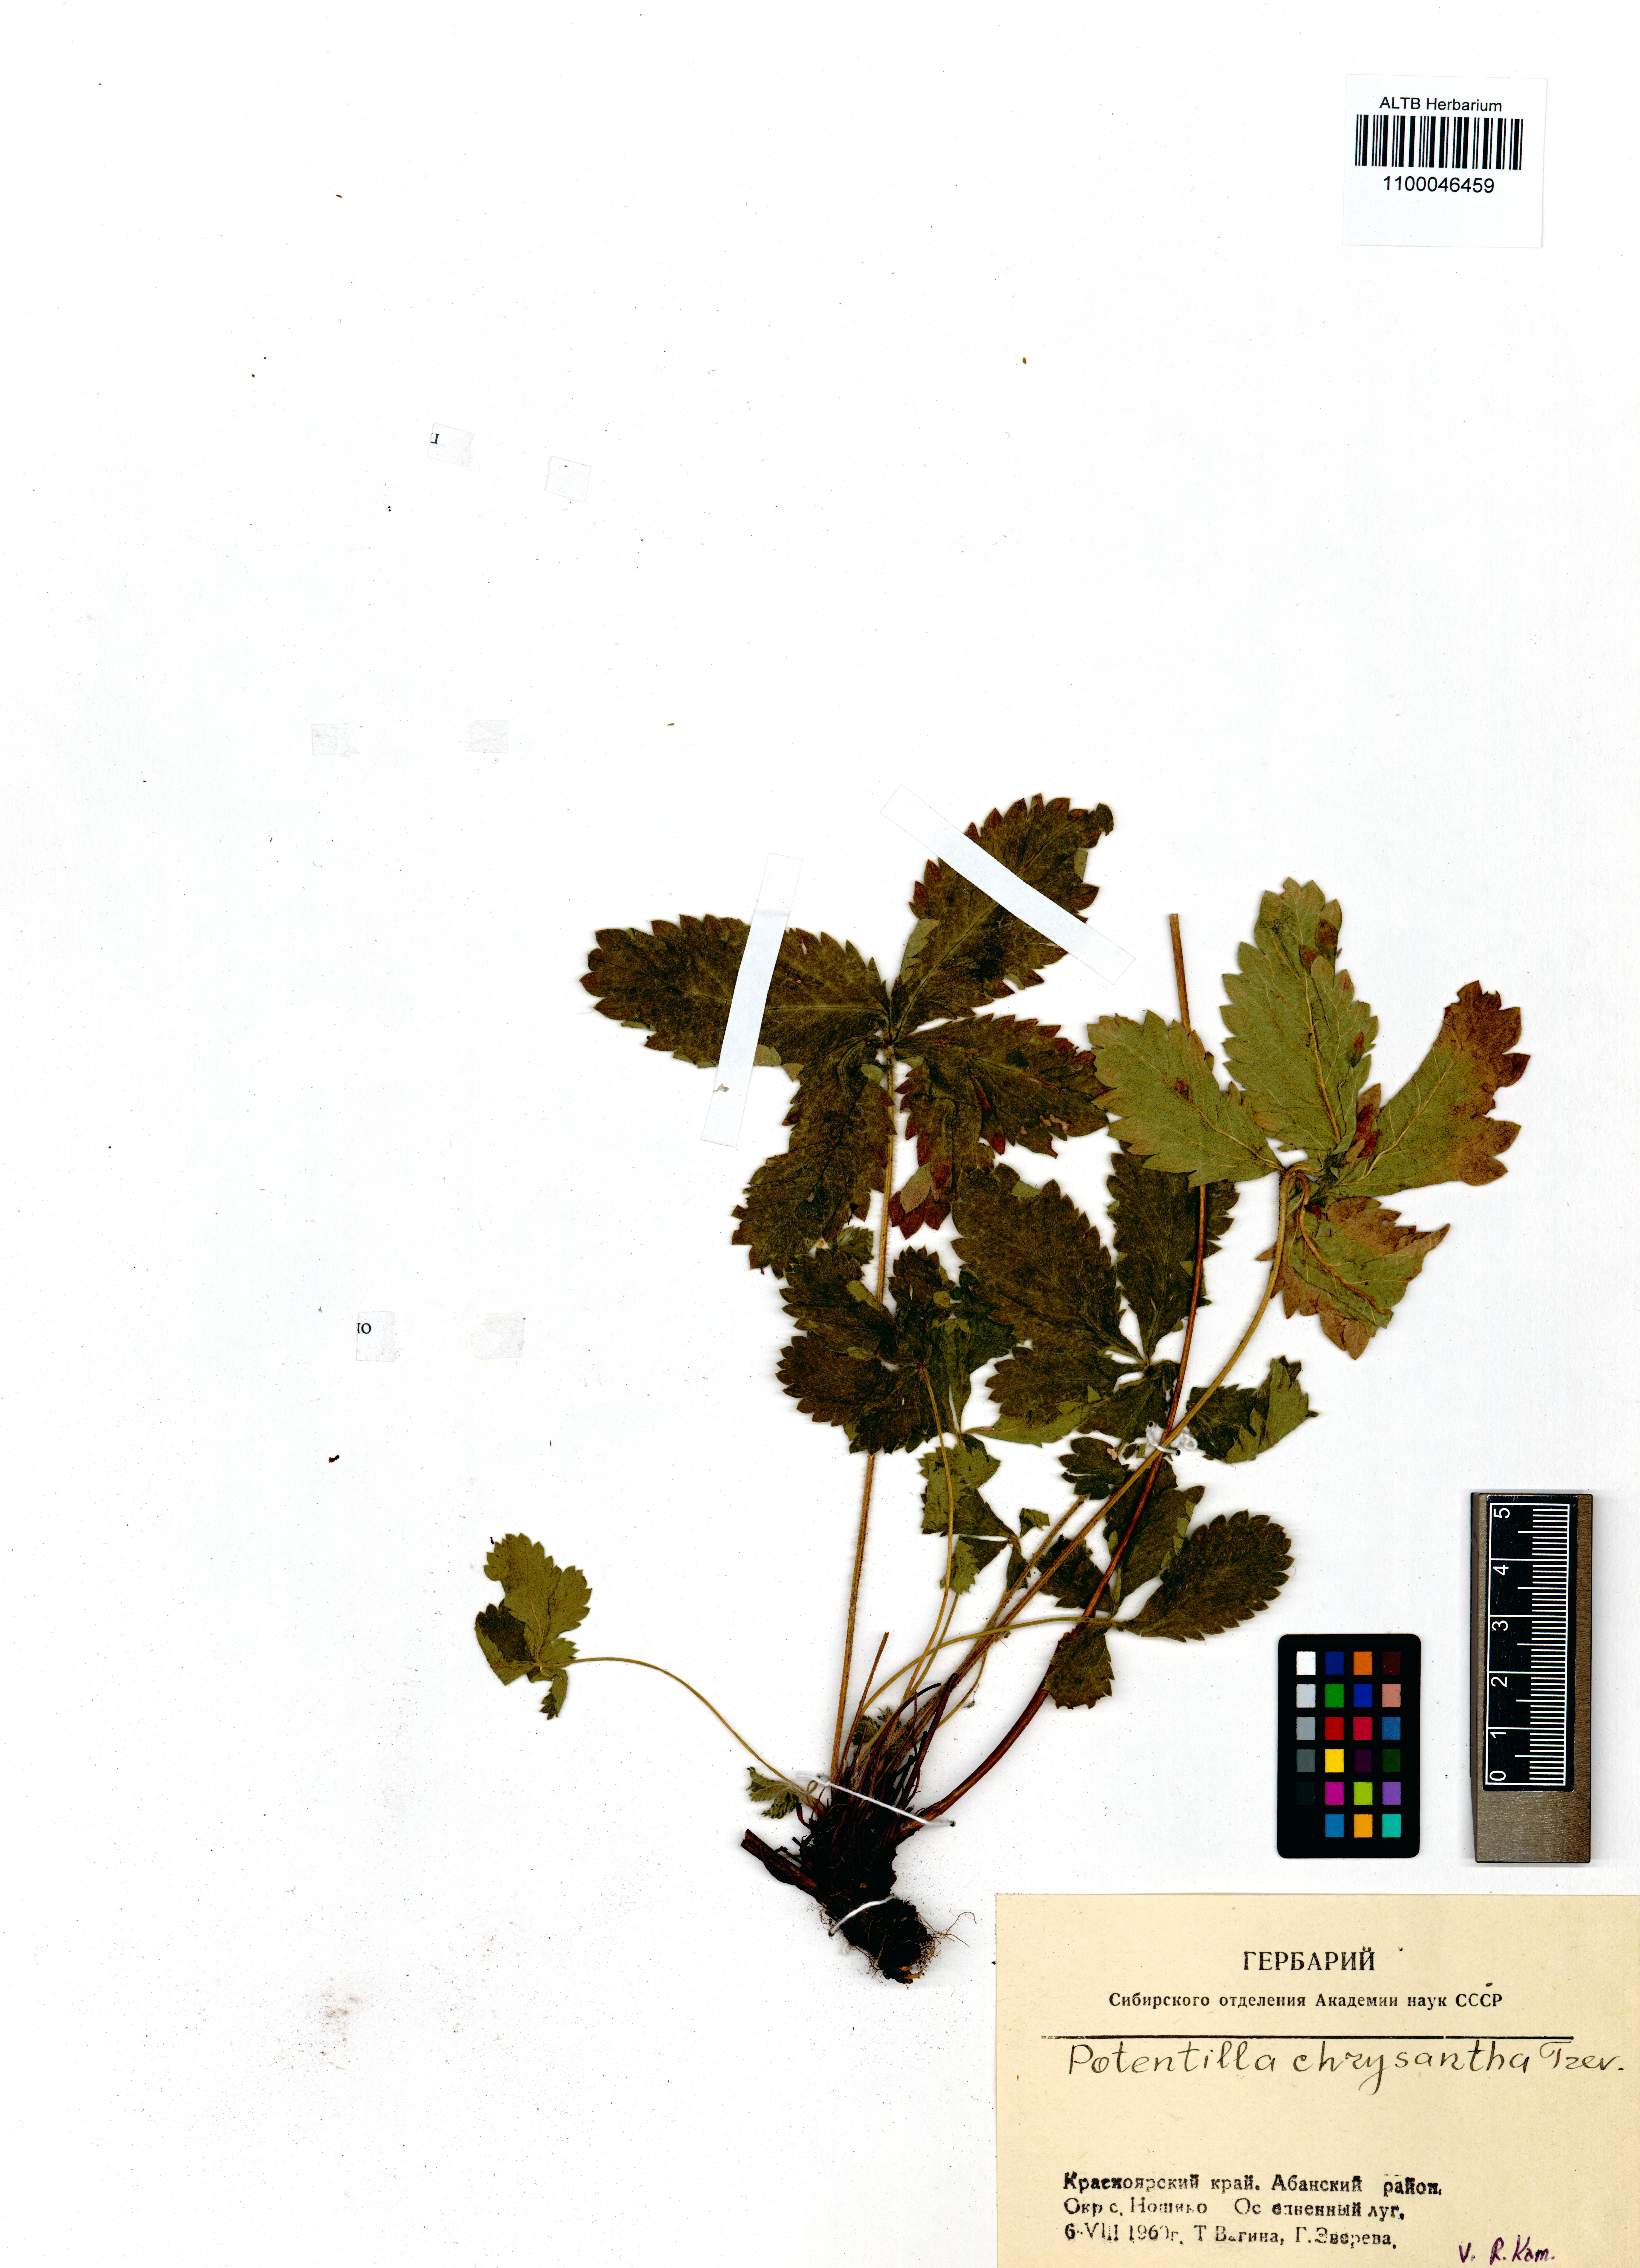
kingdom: Plantae
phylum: Tracheophyta
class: Magnoliopsida
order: Rosales
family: Rosaceae
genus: Potentilla
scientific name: Potentilla chrysantha
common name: Thuringian cinquefoil
